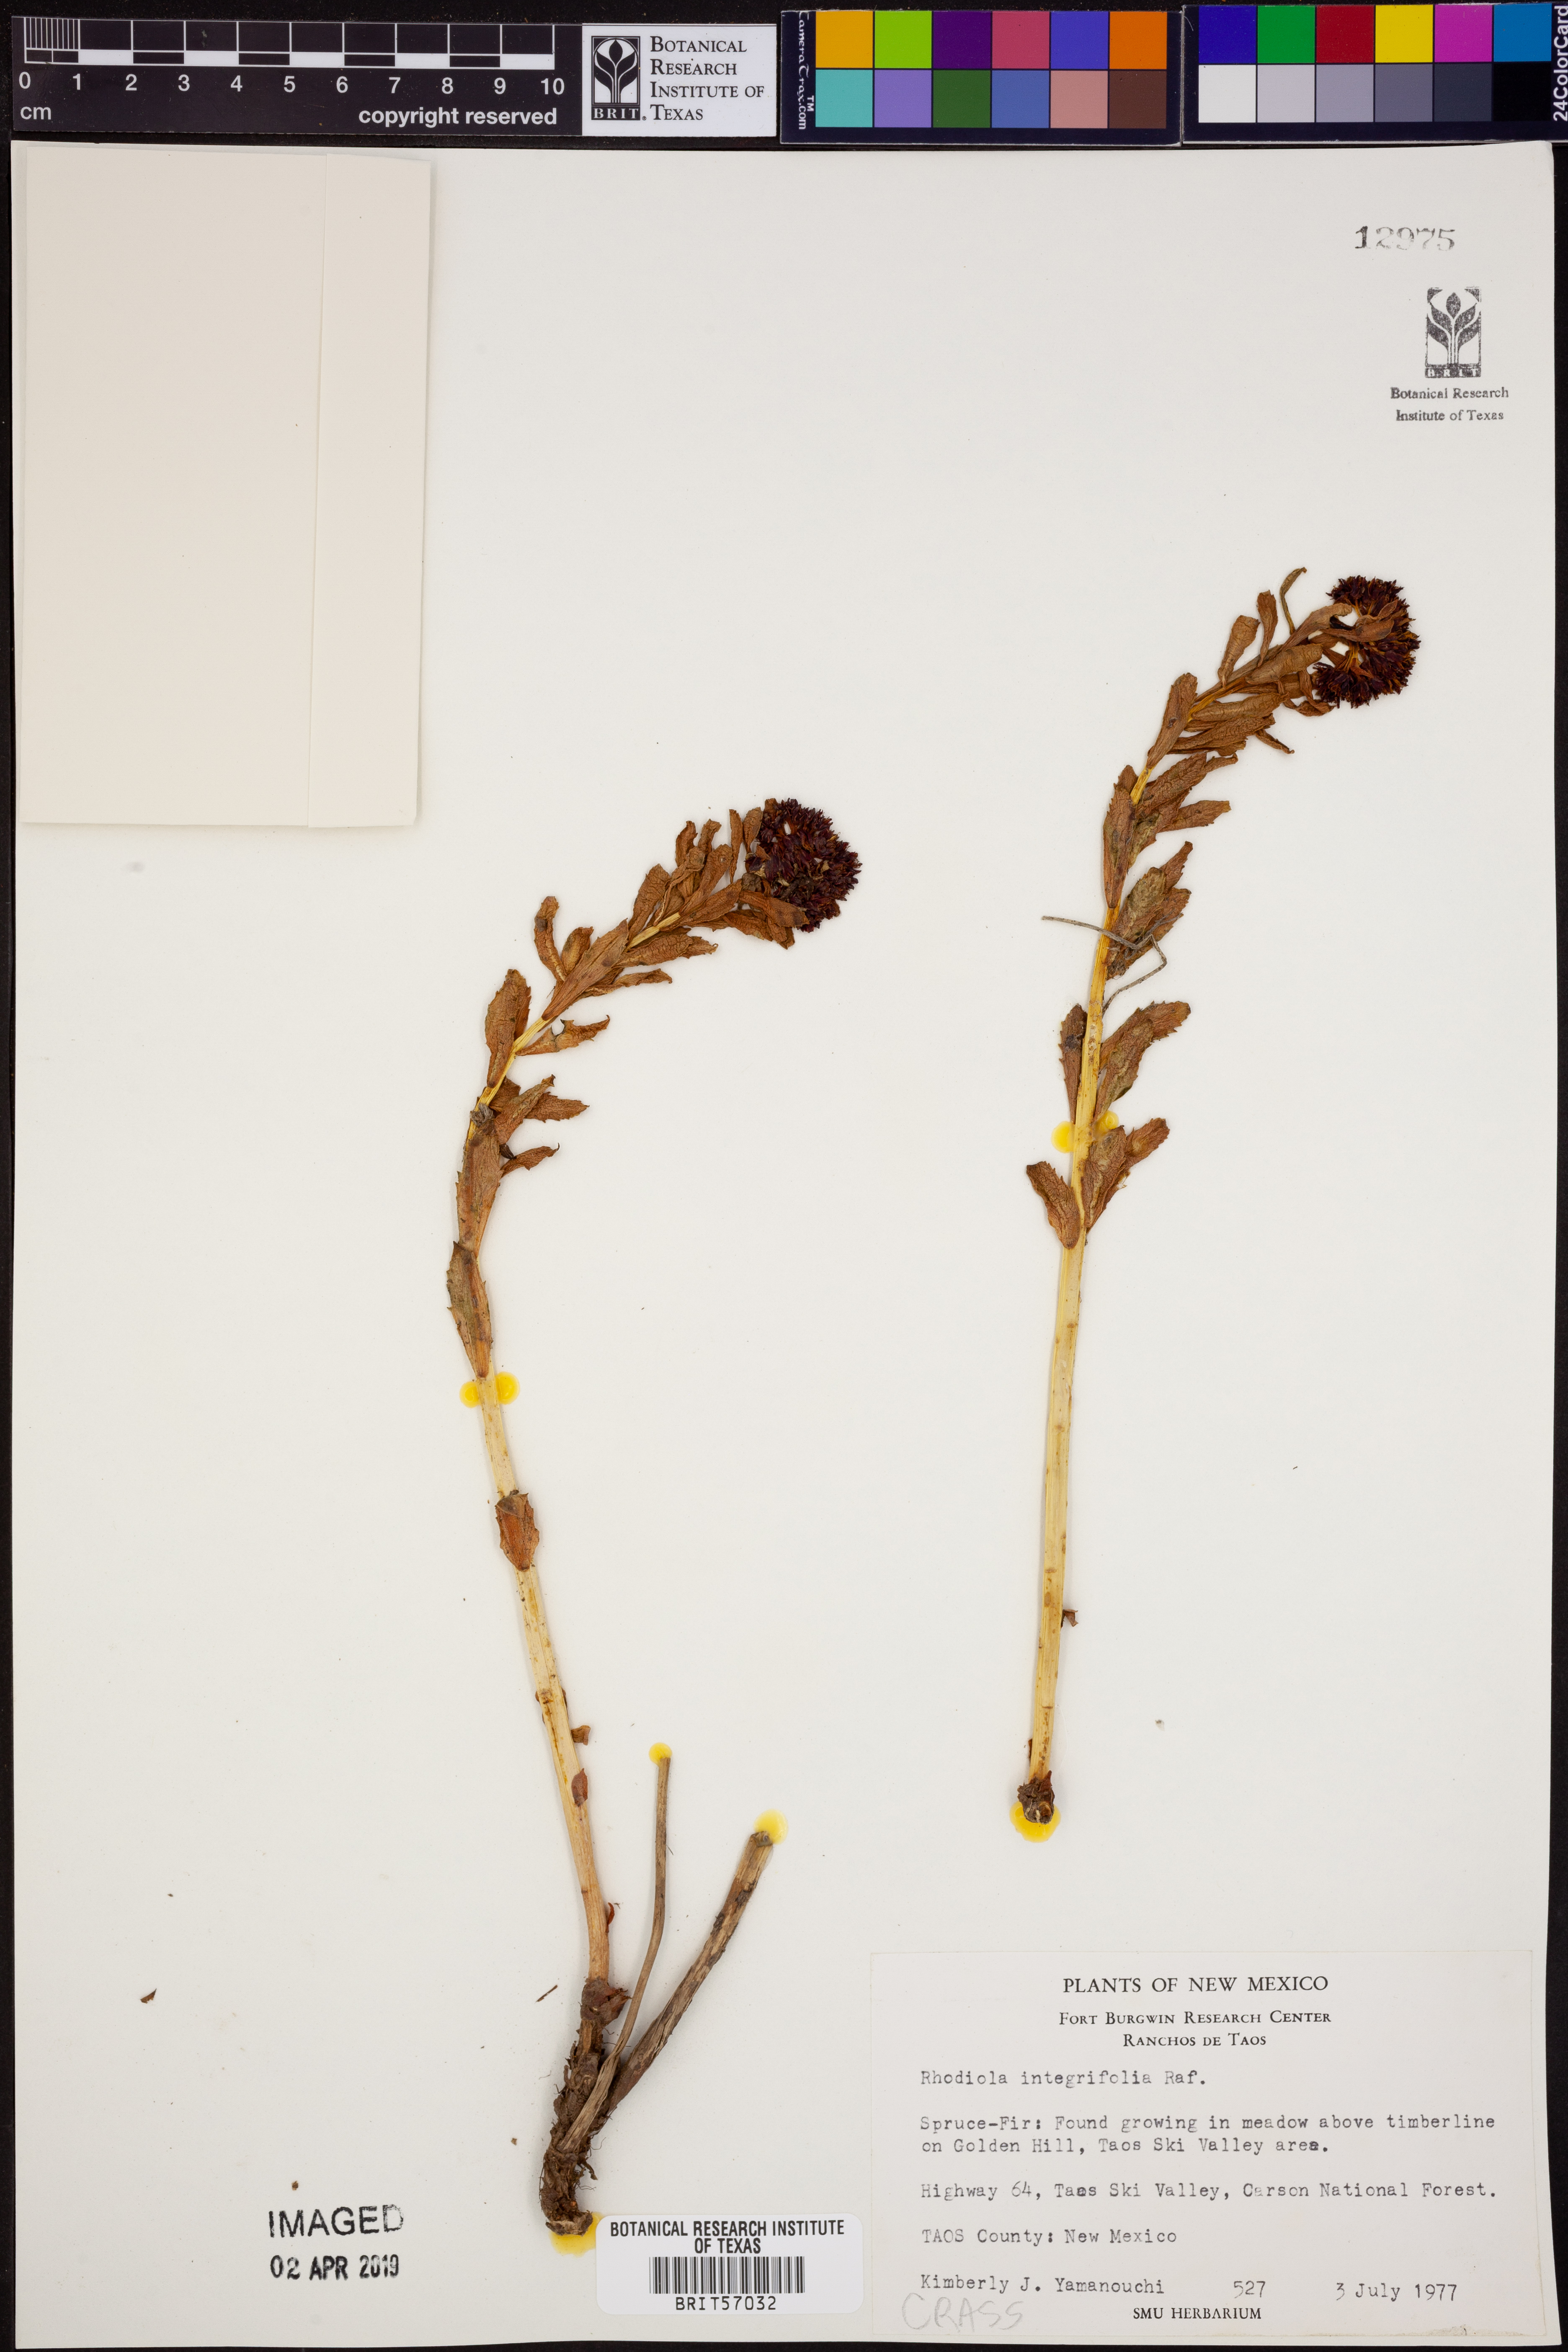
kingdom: Plantae
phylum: Tracheophyta
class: Magnoliopsida
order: Saxifragales
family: Crassulaceae
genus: Rhodiola
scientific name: Rhodiola integrifolia
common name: Western roseroot
